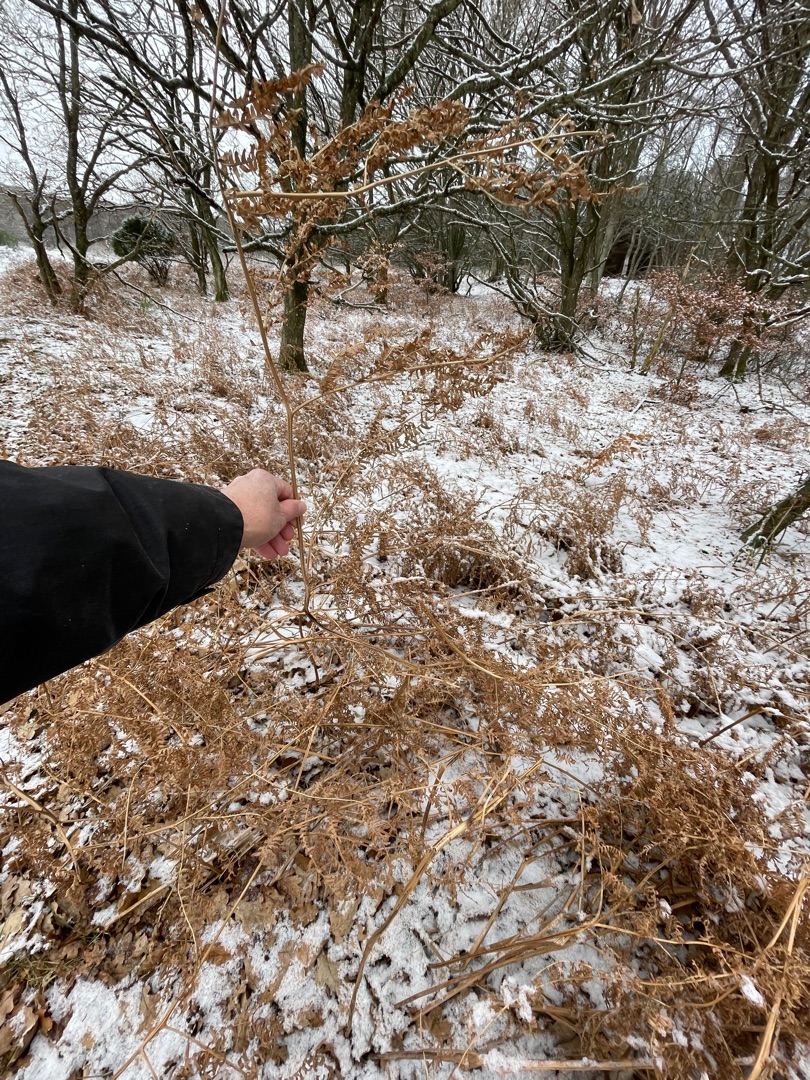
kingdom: Plantae
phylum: Tracheophyta
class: Polypodiopsida
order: Polypodiales
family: Dennstaedtiaceae
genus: Pteridium
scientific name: Pteridium aquilinum
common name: Ørnebregne
